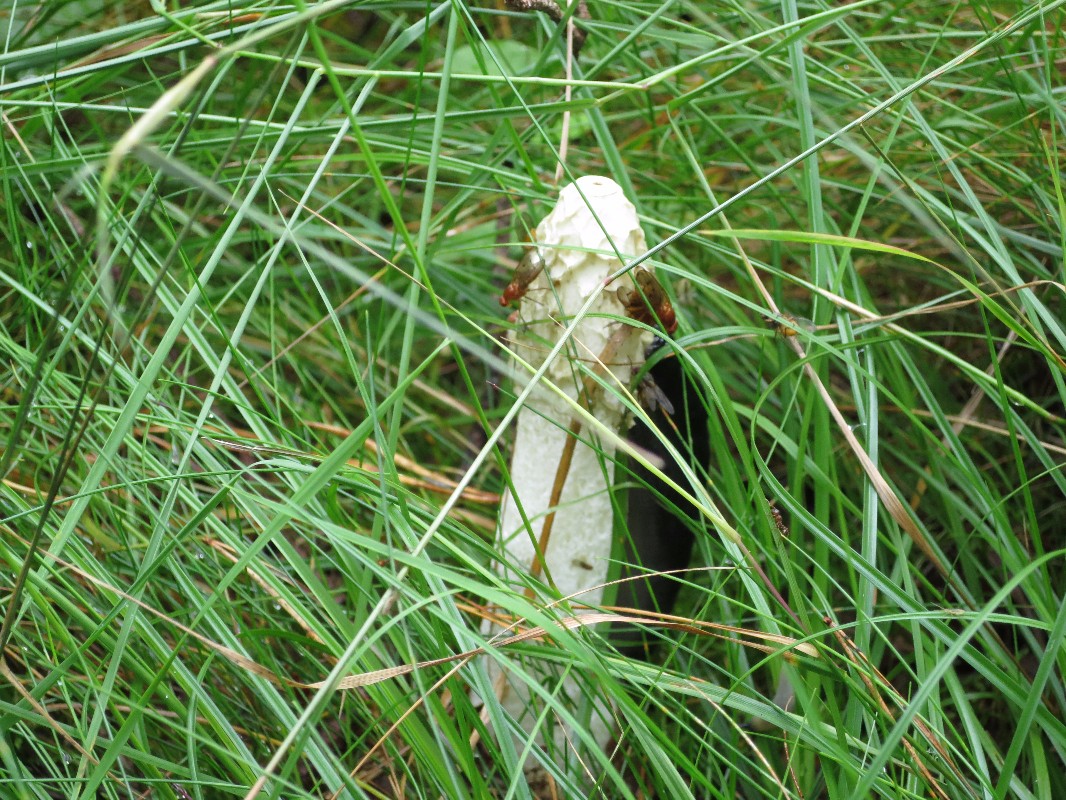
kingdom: Fungi
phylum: Basidiomycota
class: Agaricomycetes
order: Phallales
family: Phallaceae
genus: Phallus
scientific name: Phallus impudicus
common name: almindelig stinksvamp
